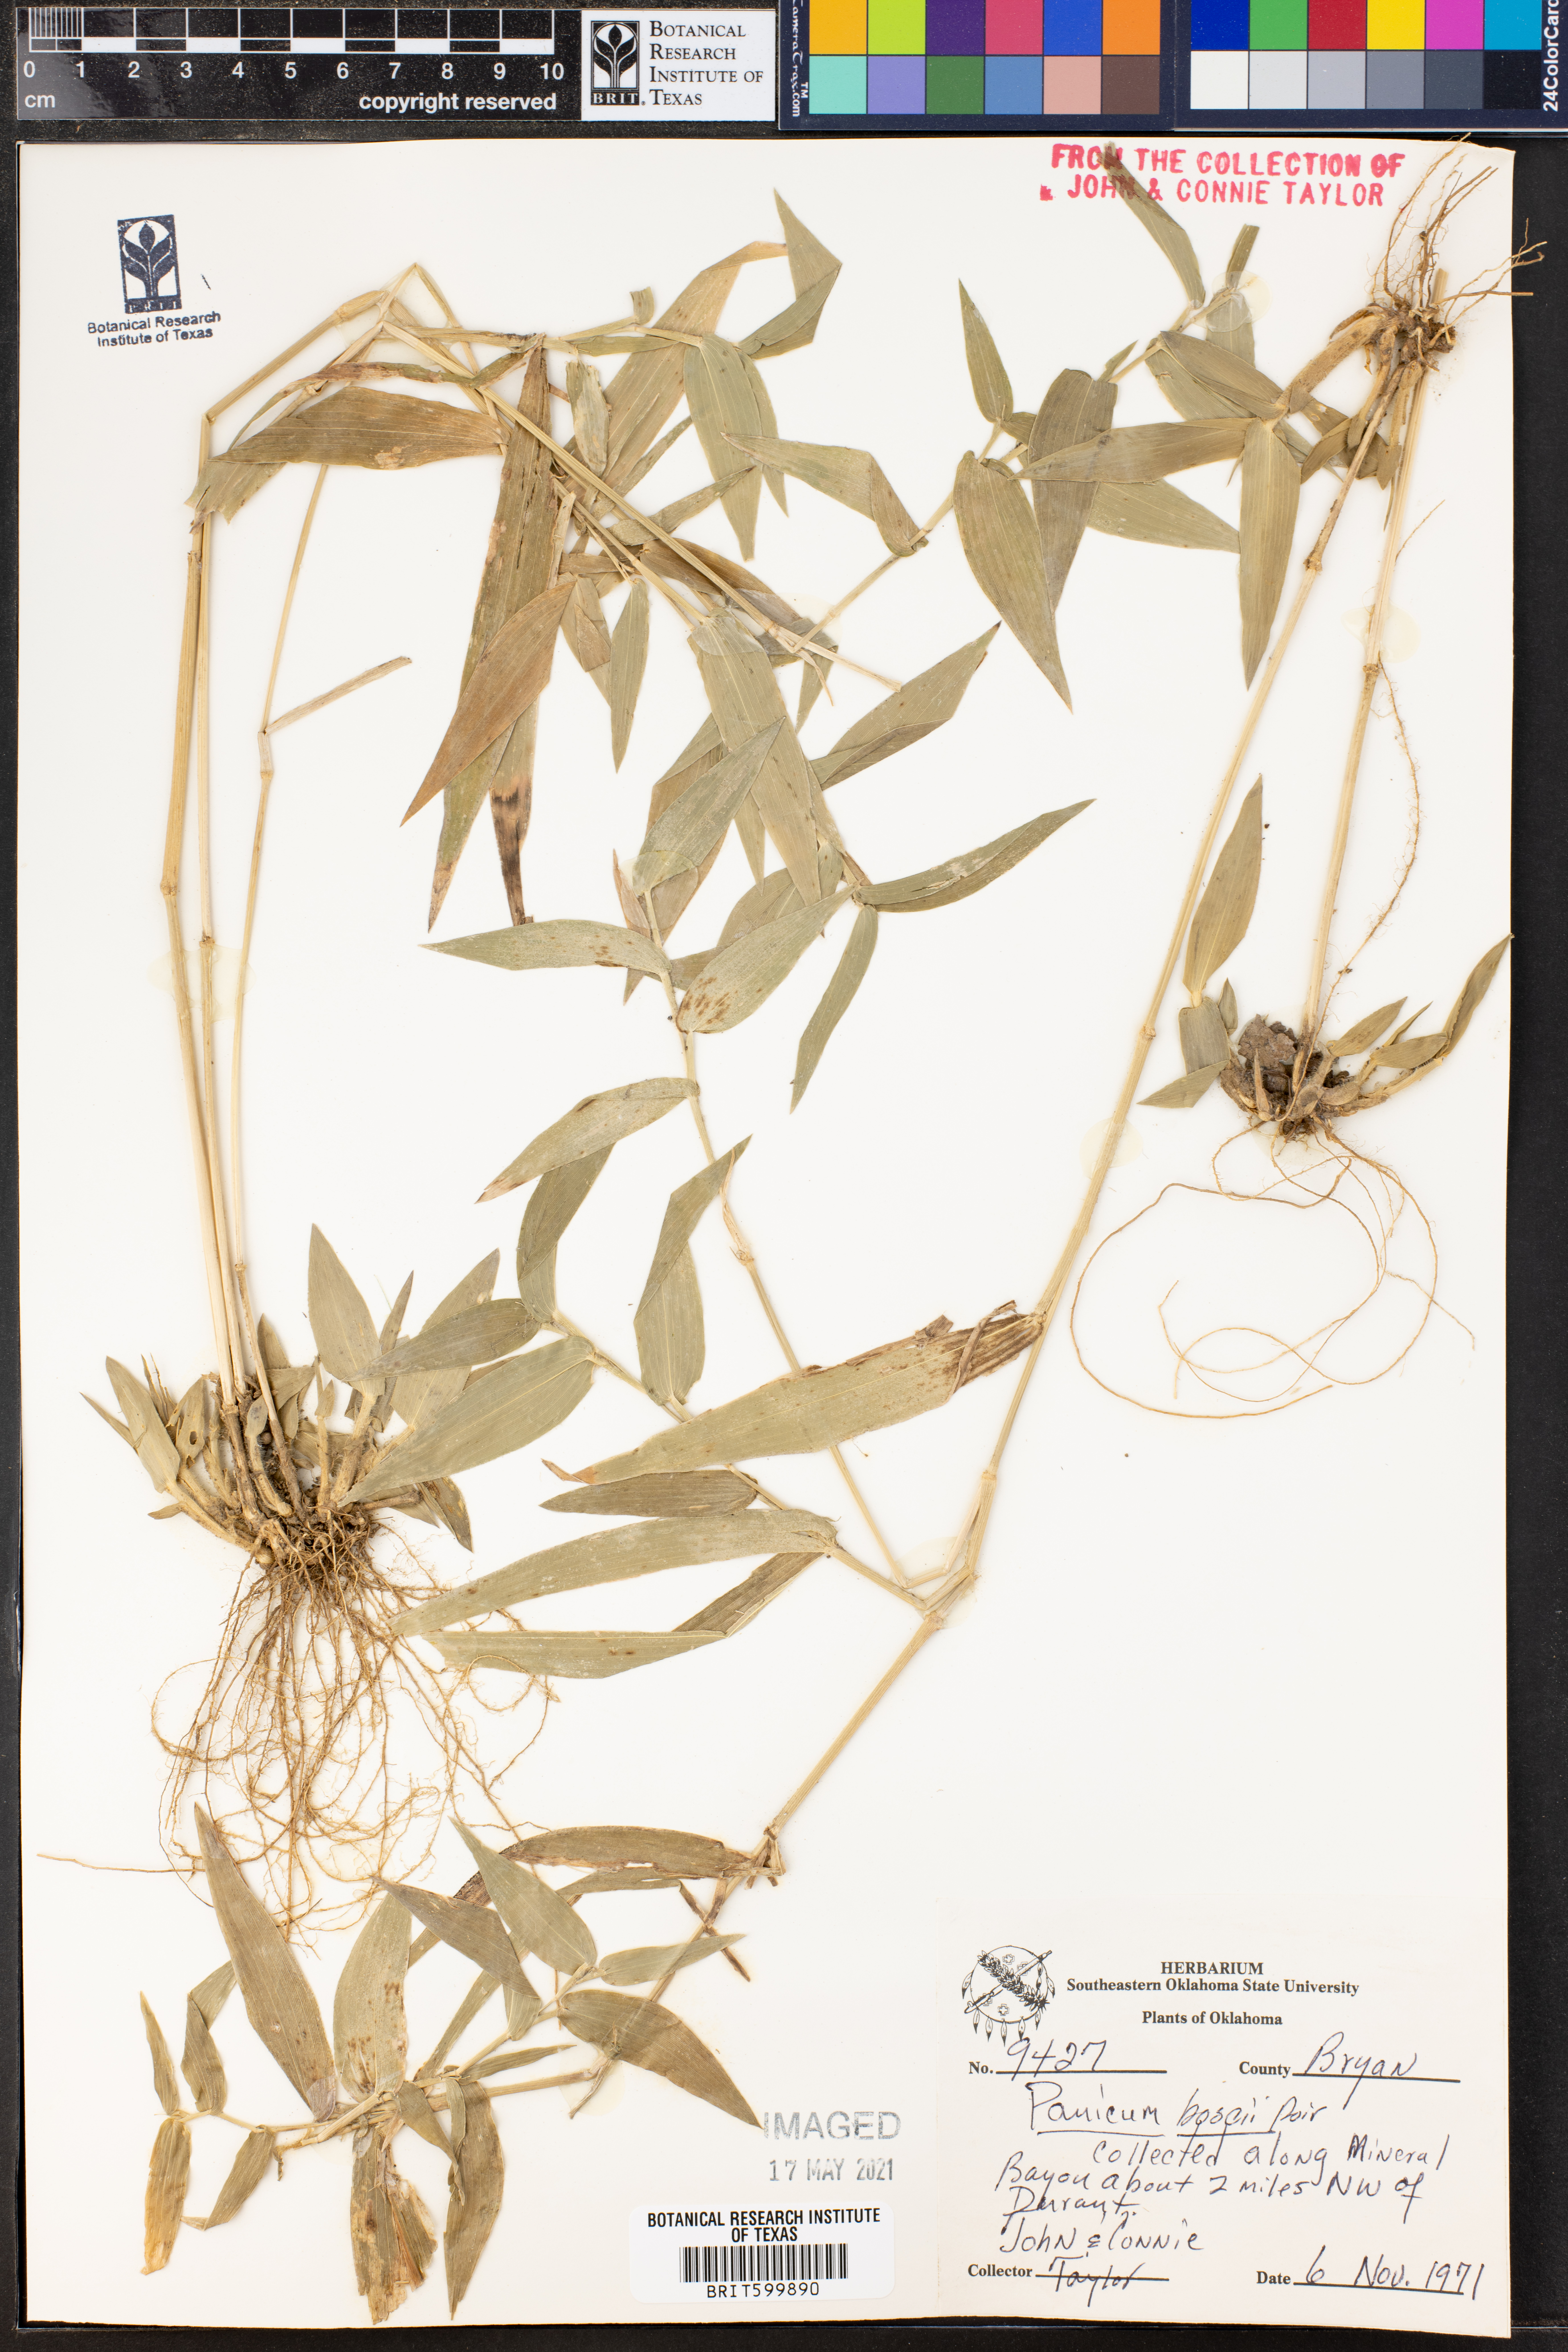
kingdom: Plantae
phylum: Tracheophyta
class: Liliopsida
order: Poales
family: Poaceae
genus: Dichanthelium
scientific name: Dichanthelium boscii
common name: Bosc's panic grass
